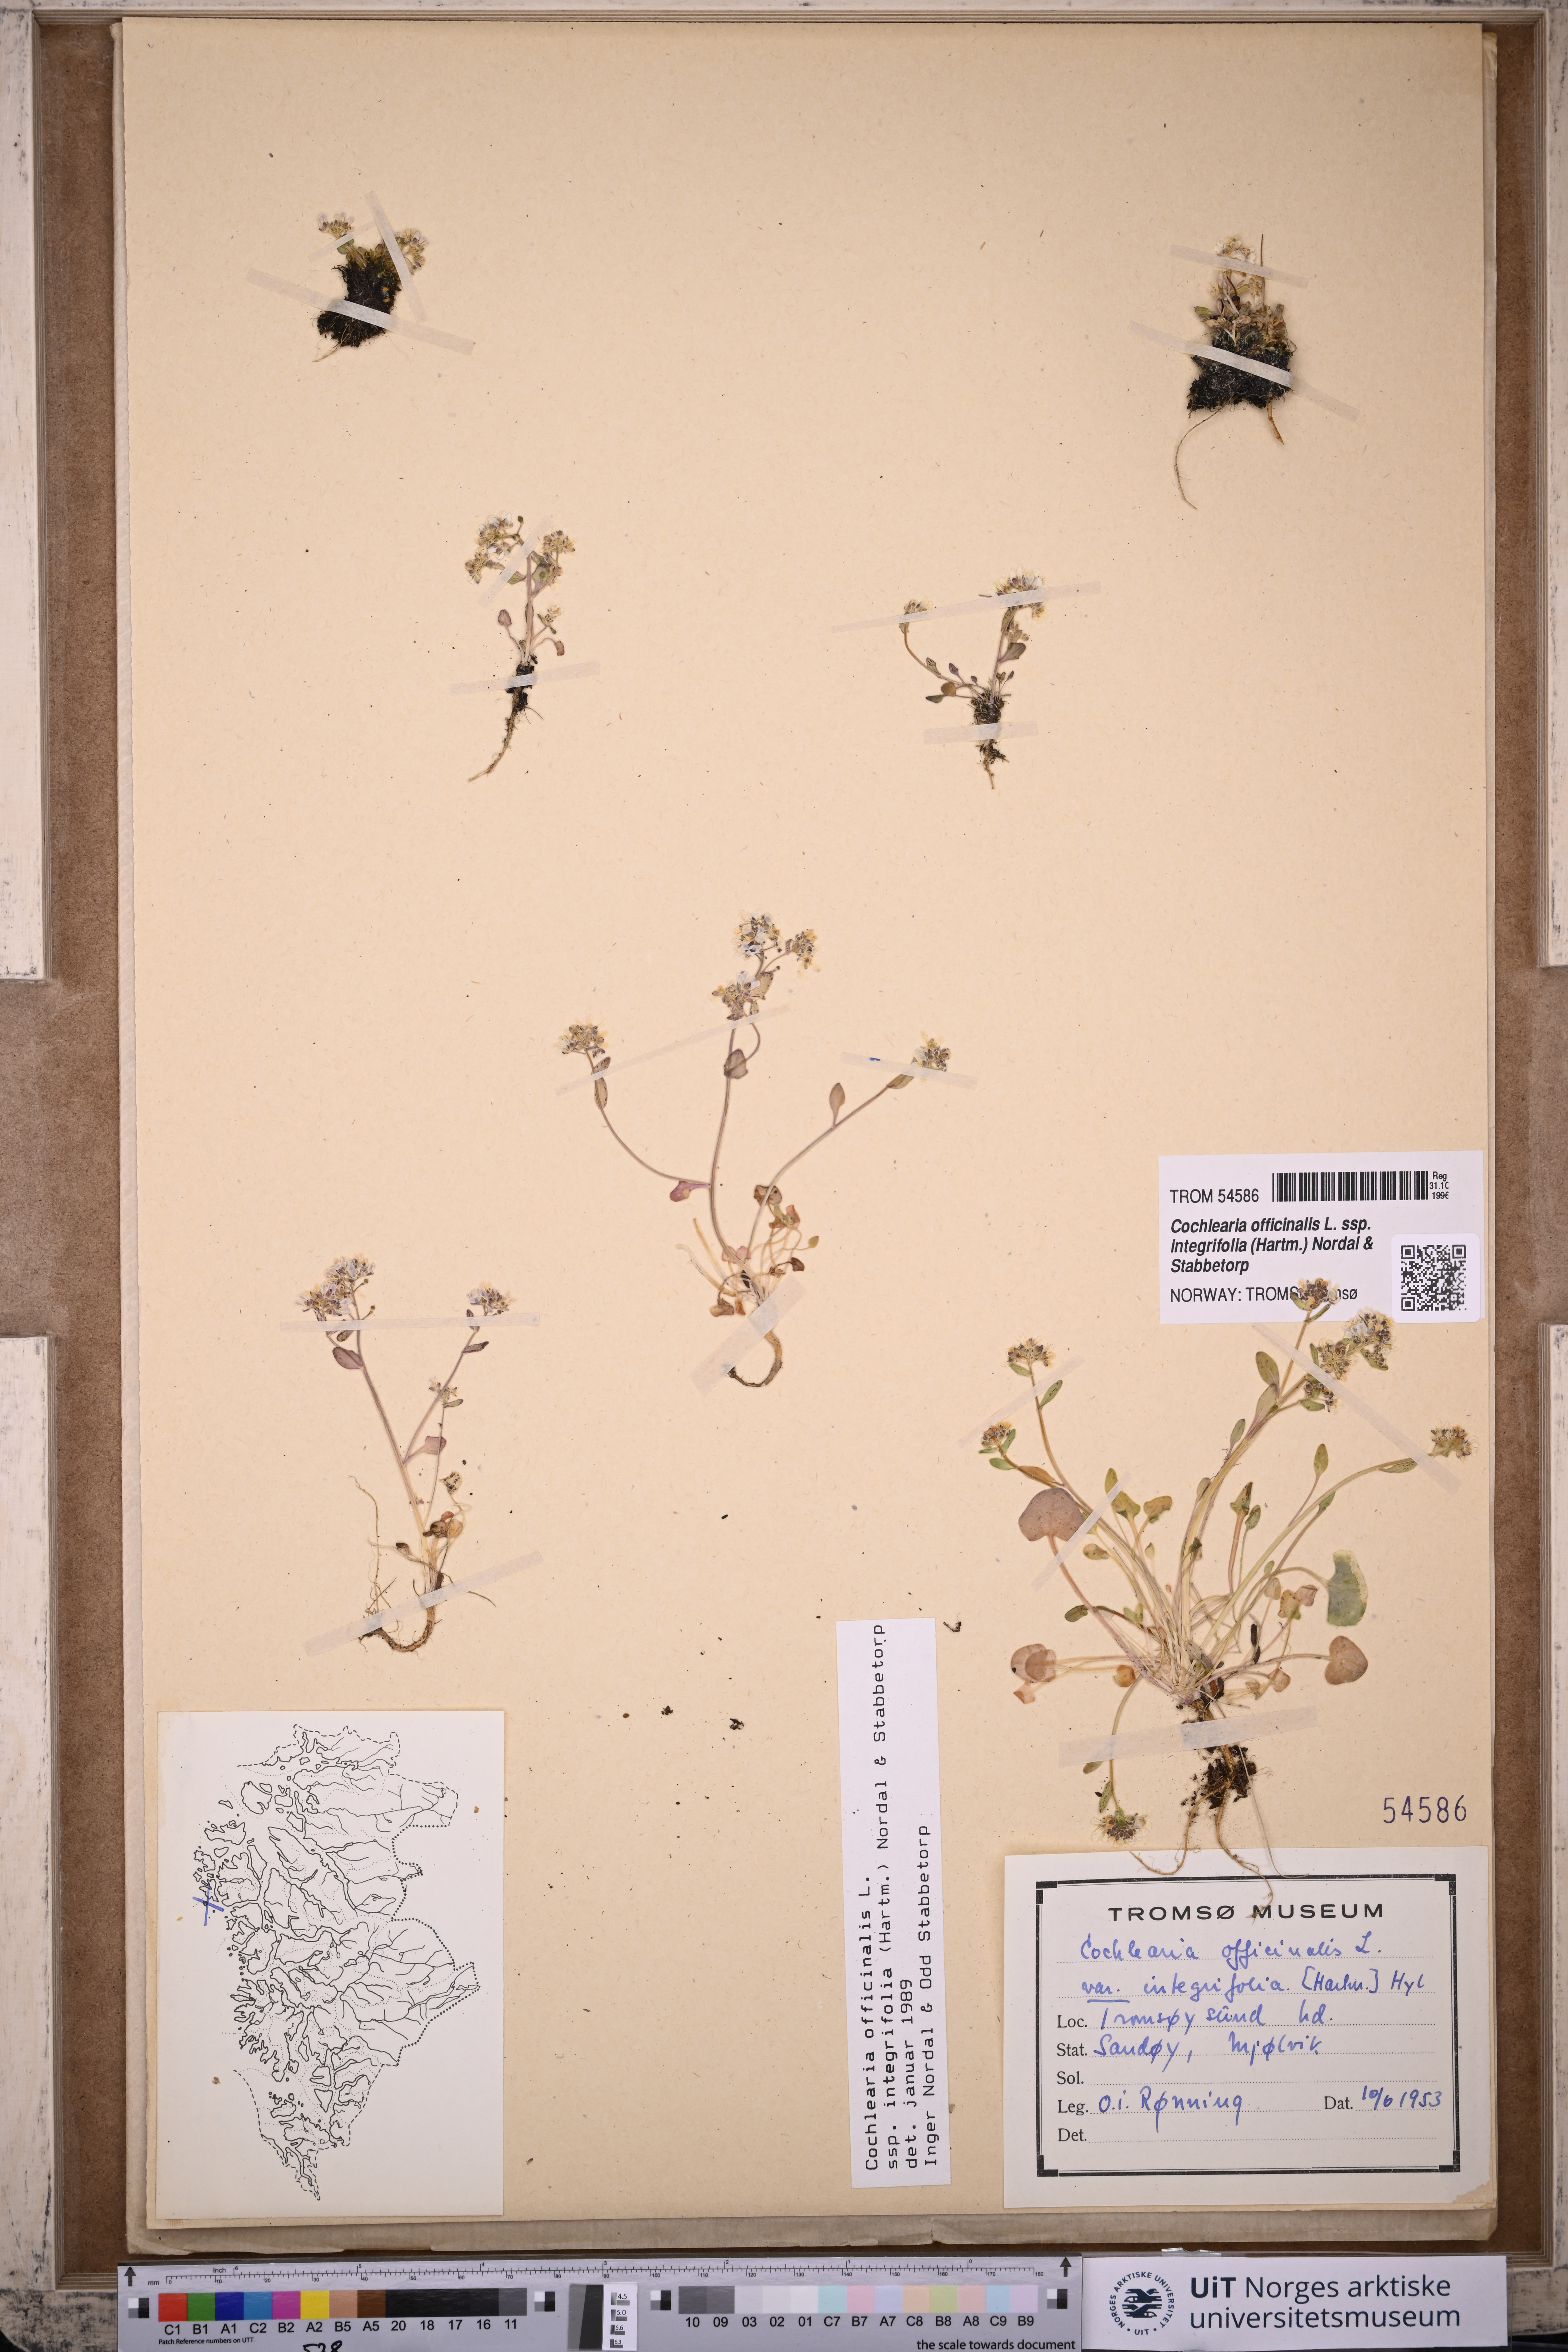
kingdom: Plantae
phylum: Tracheophyta
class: Magnoliopsida
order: Brassicales
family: Brassicaceae
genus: Cochlearia
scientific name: Cochlearia officinalis
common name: Scurvy-grass
